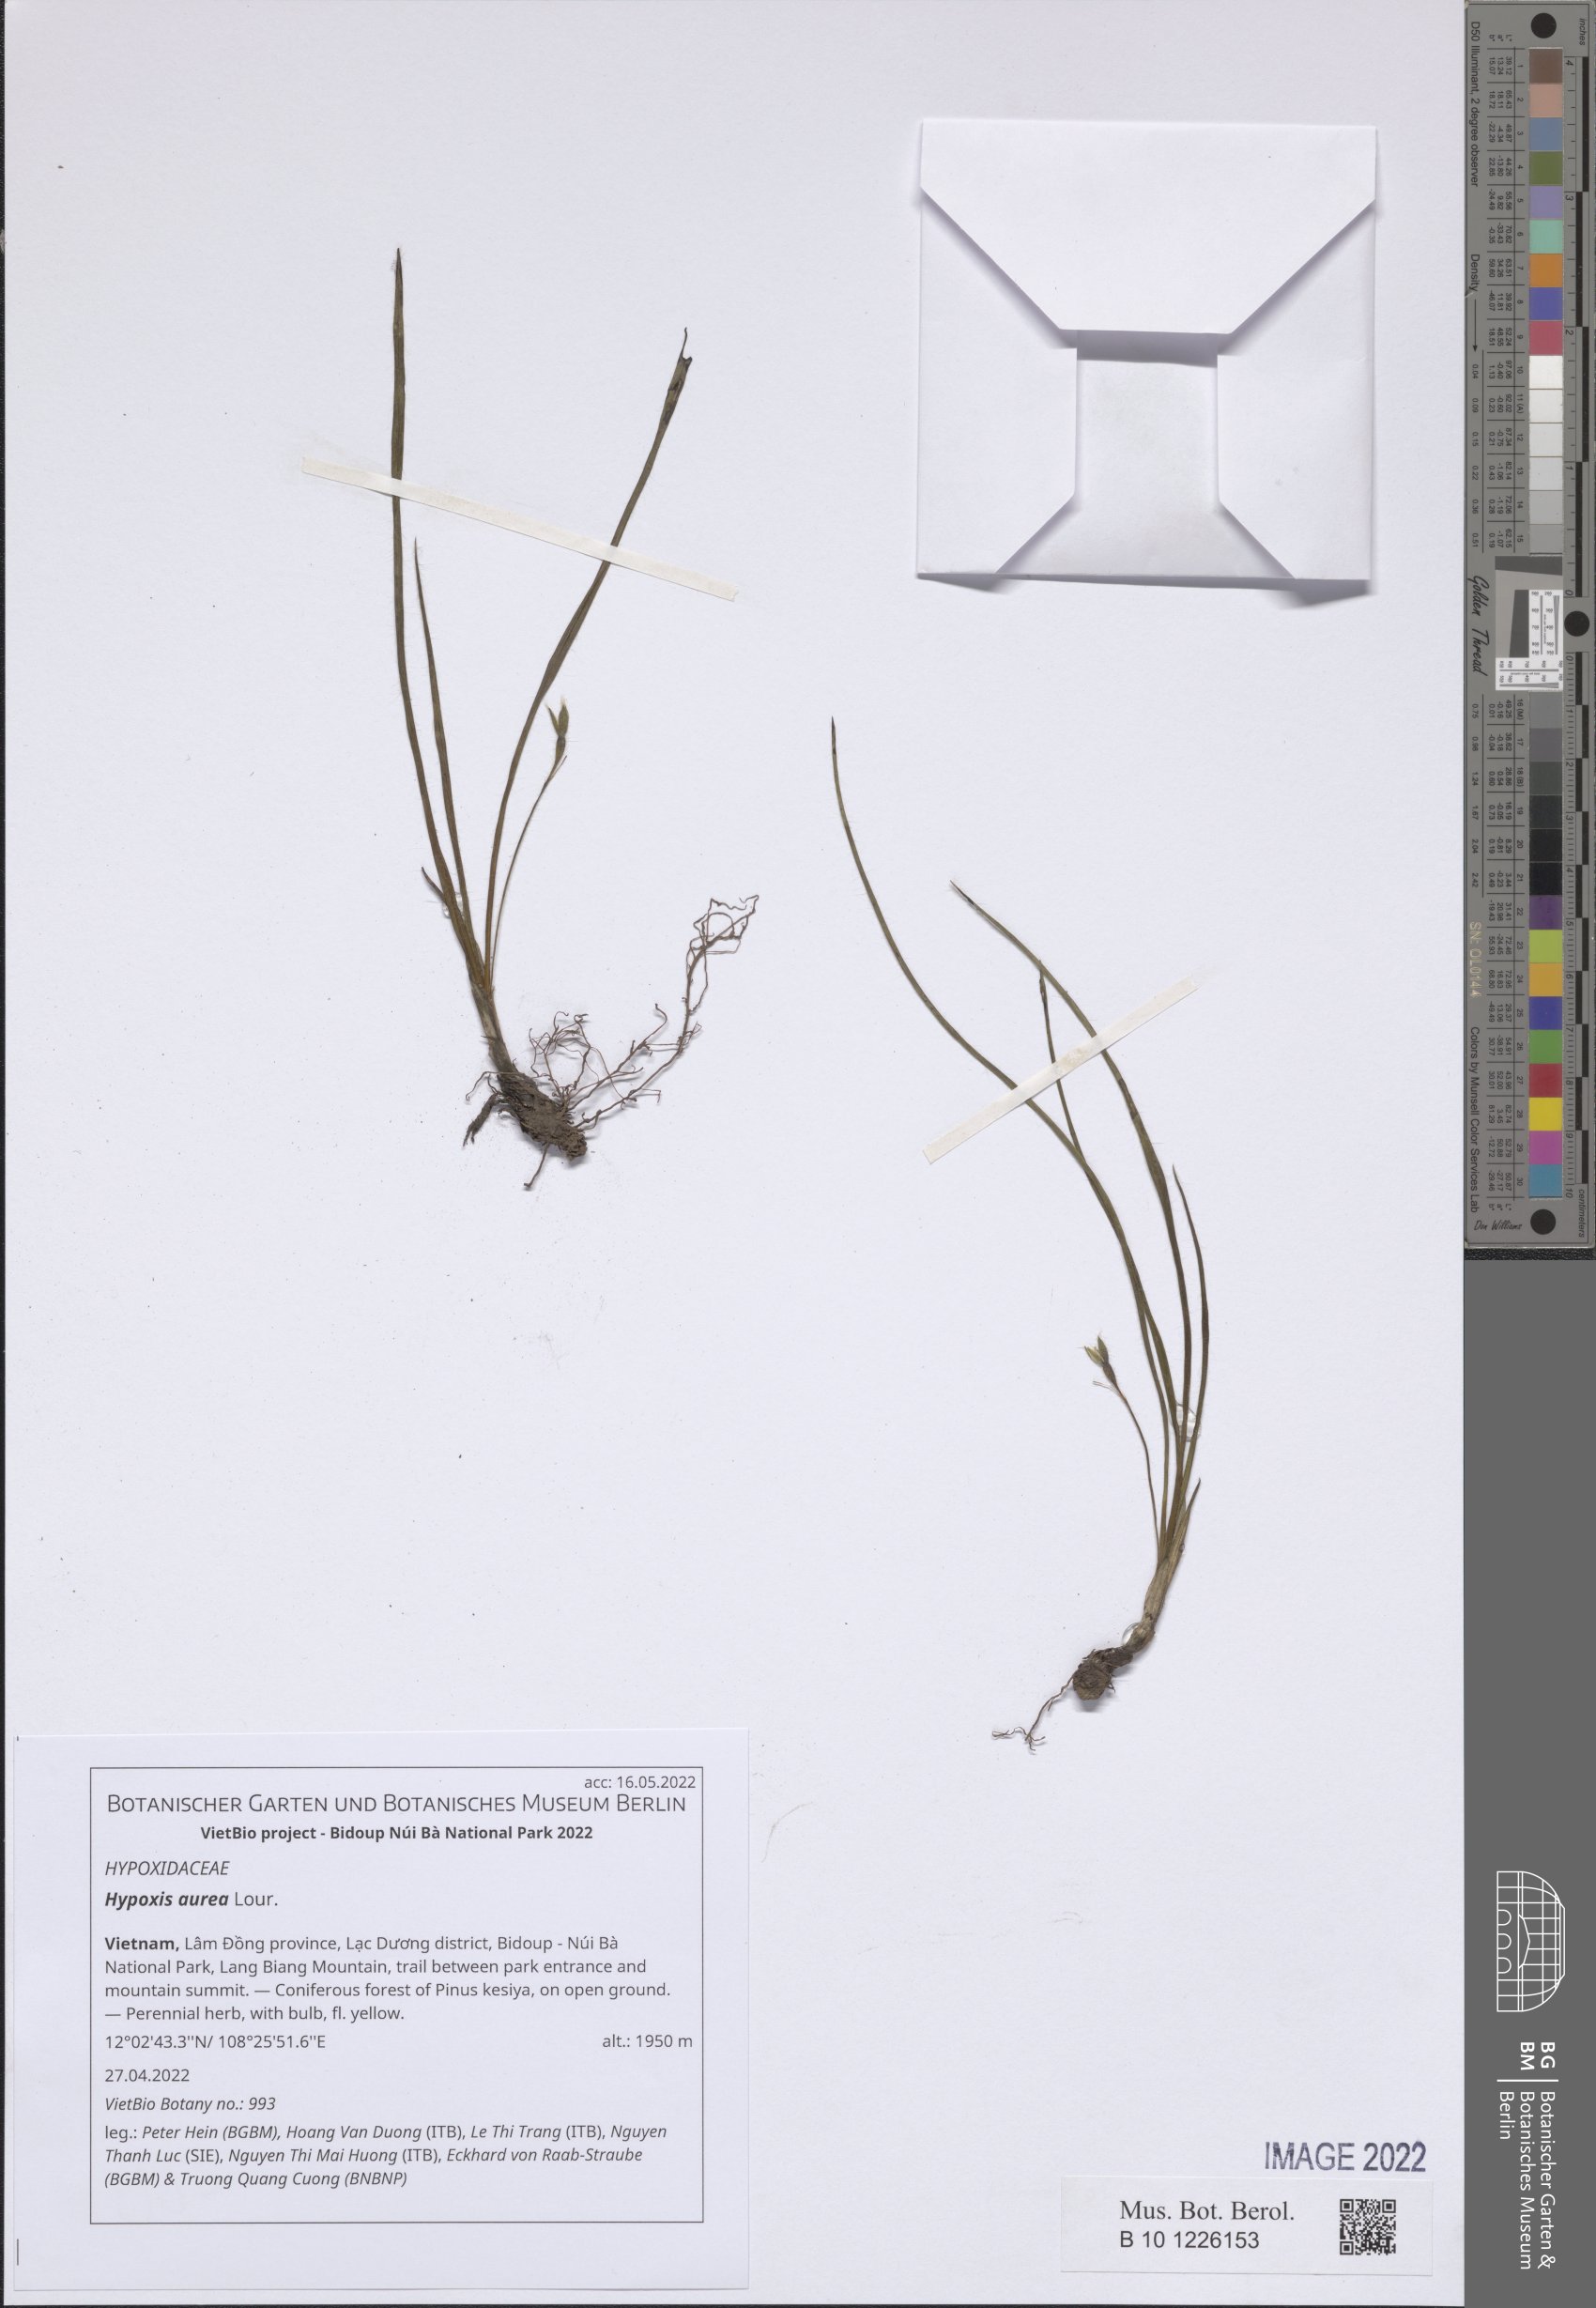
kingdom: Plantae
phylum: Tracheophyta
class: Liliopsida
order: Asparagales
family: Hypoxidaceae
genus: Hypoxis
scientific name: Hypoxis aurea
